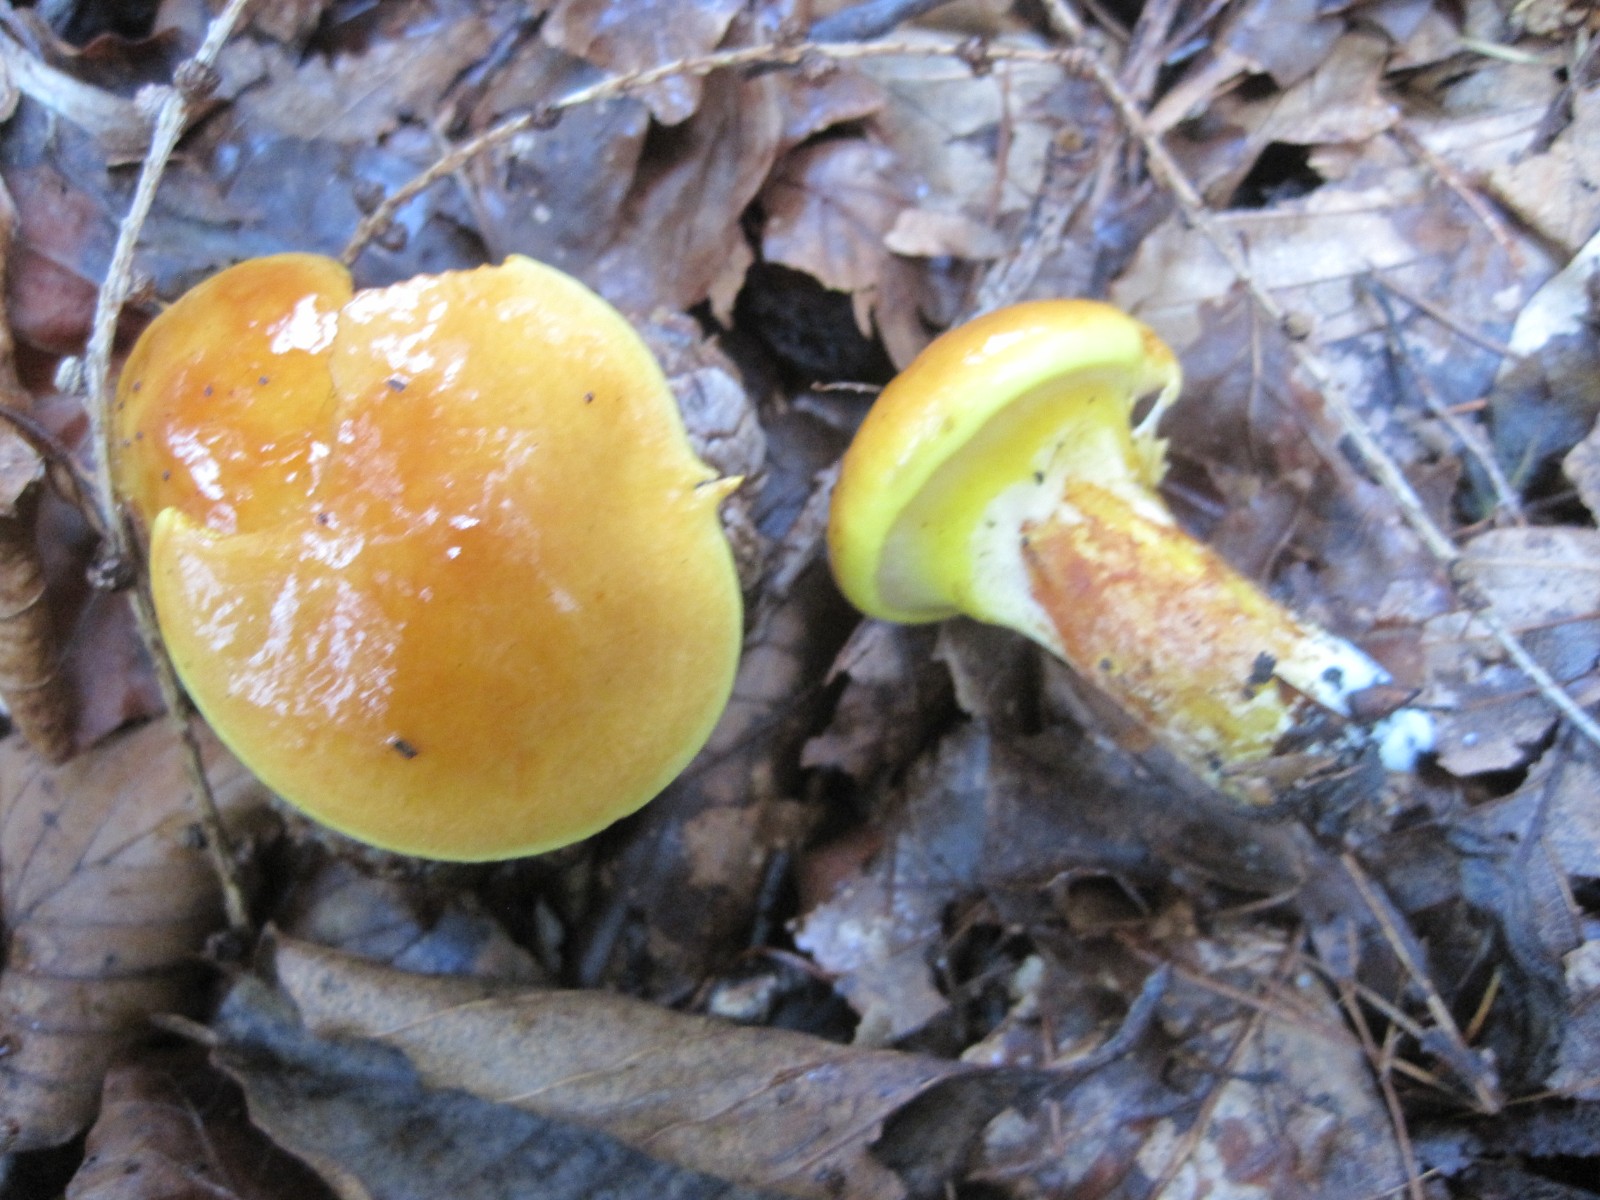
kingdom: Fungi
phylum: Basidiomycota
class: Agaricomycetes
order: Boletales
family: Suillaceae
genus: Suillus
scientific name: Suillus grevillei
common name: lærke-slimrørhat
